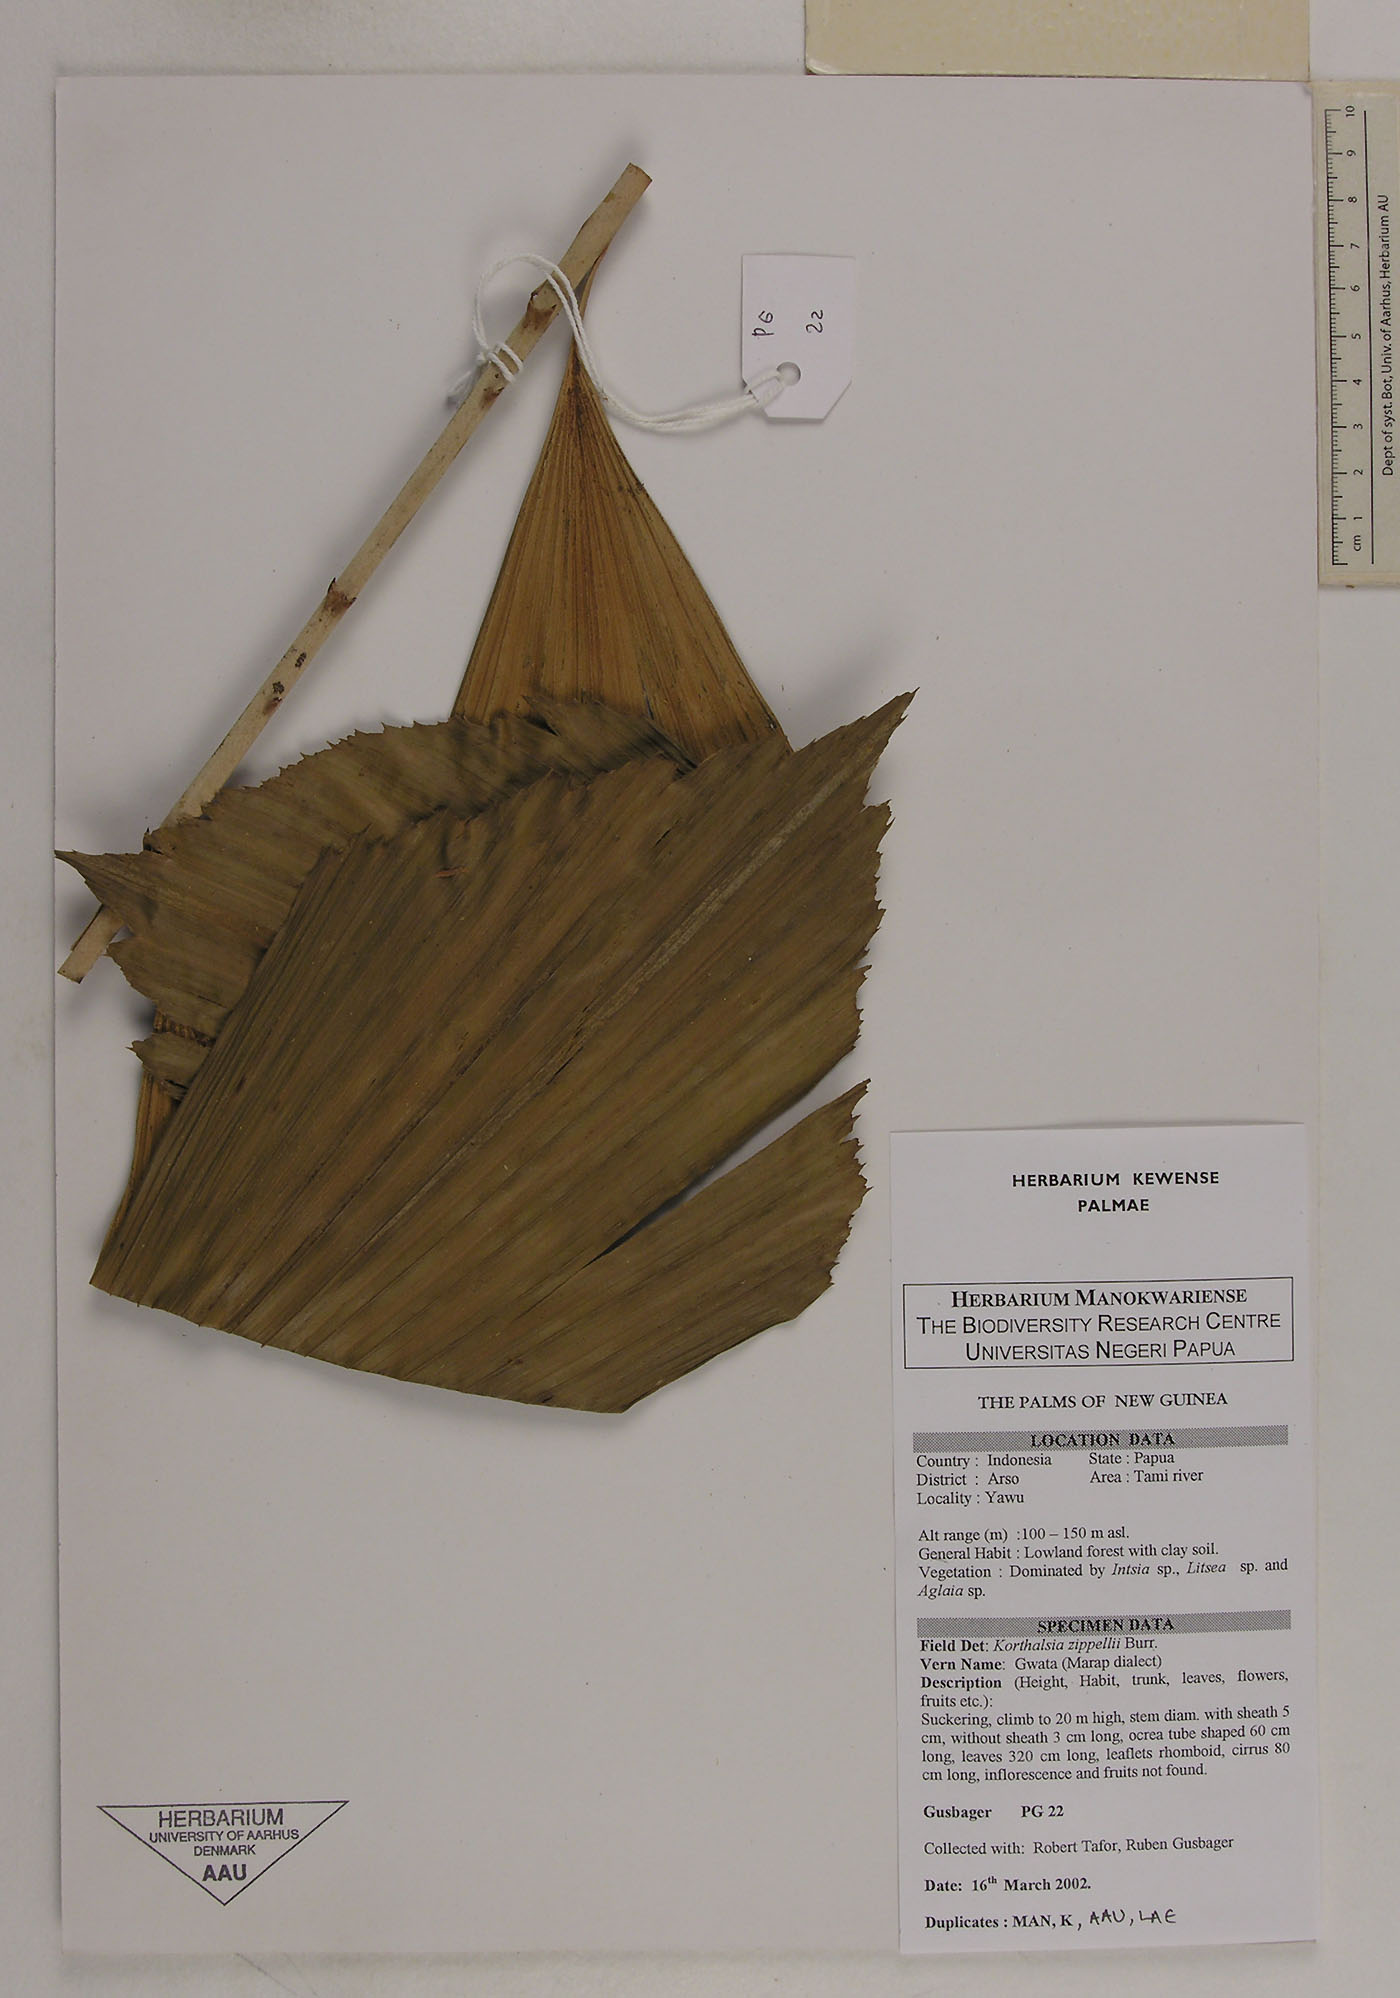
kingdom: Plantae
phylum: Tracheophyta
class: Liliopsida
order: Arecales
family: Arecaceae
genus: Korthalsia
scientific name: Korthalsia zippelii
